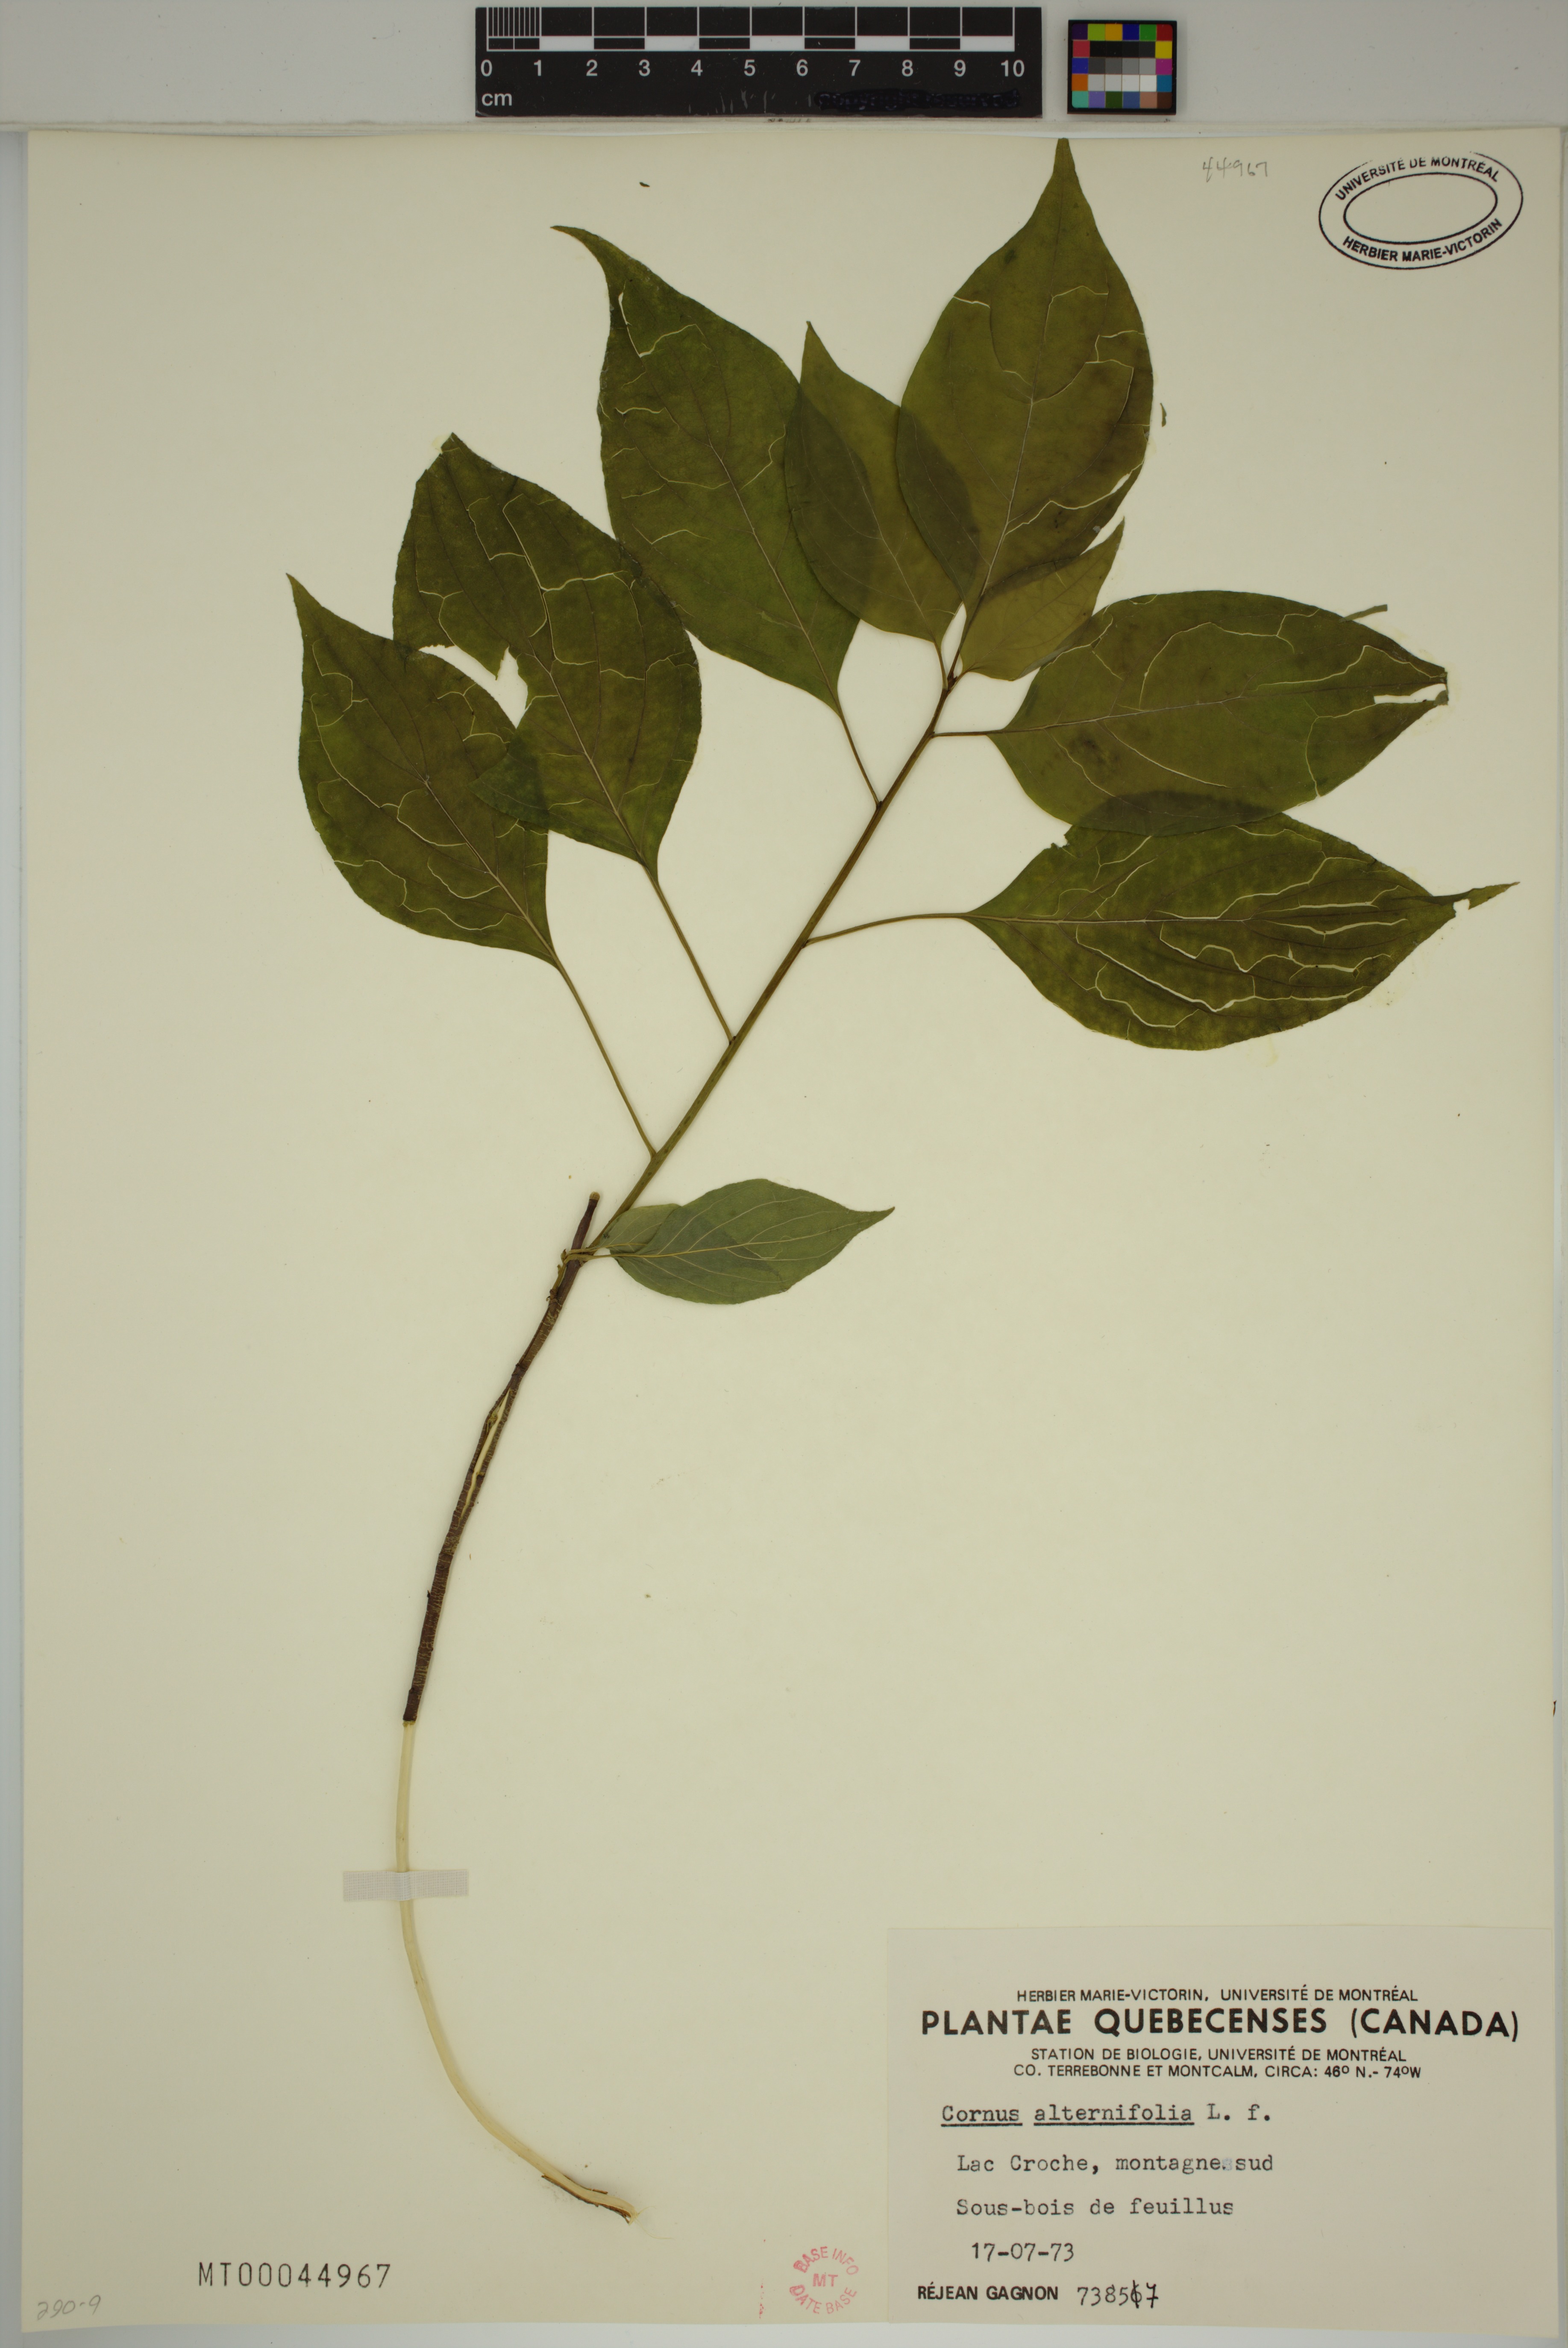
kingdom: Plantae
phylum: Tracheophyta
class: Magnoliopsida
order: Cornales
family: Cornaceae
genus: Cornus
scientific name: Cornus alternifolia
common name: Pagoda dogwood
